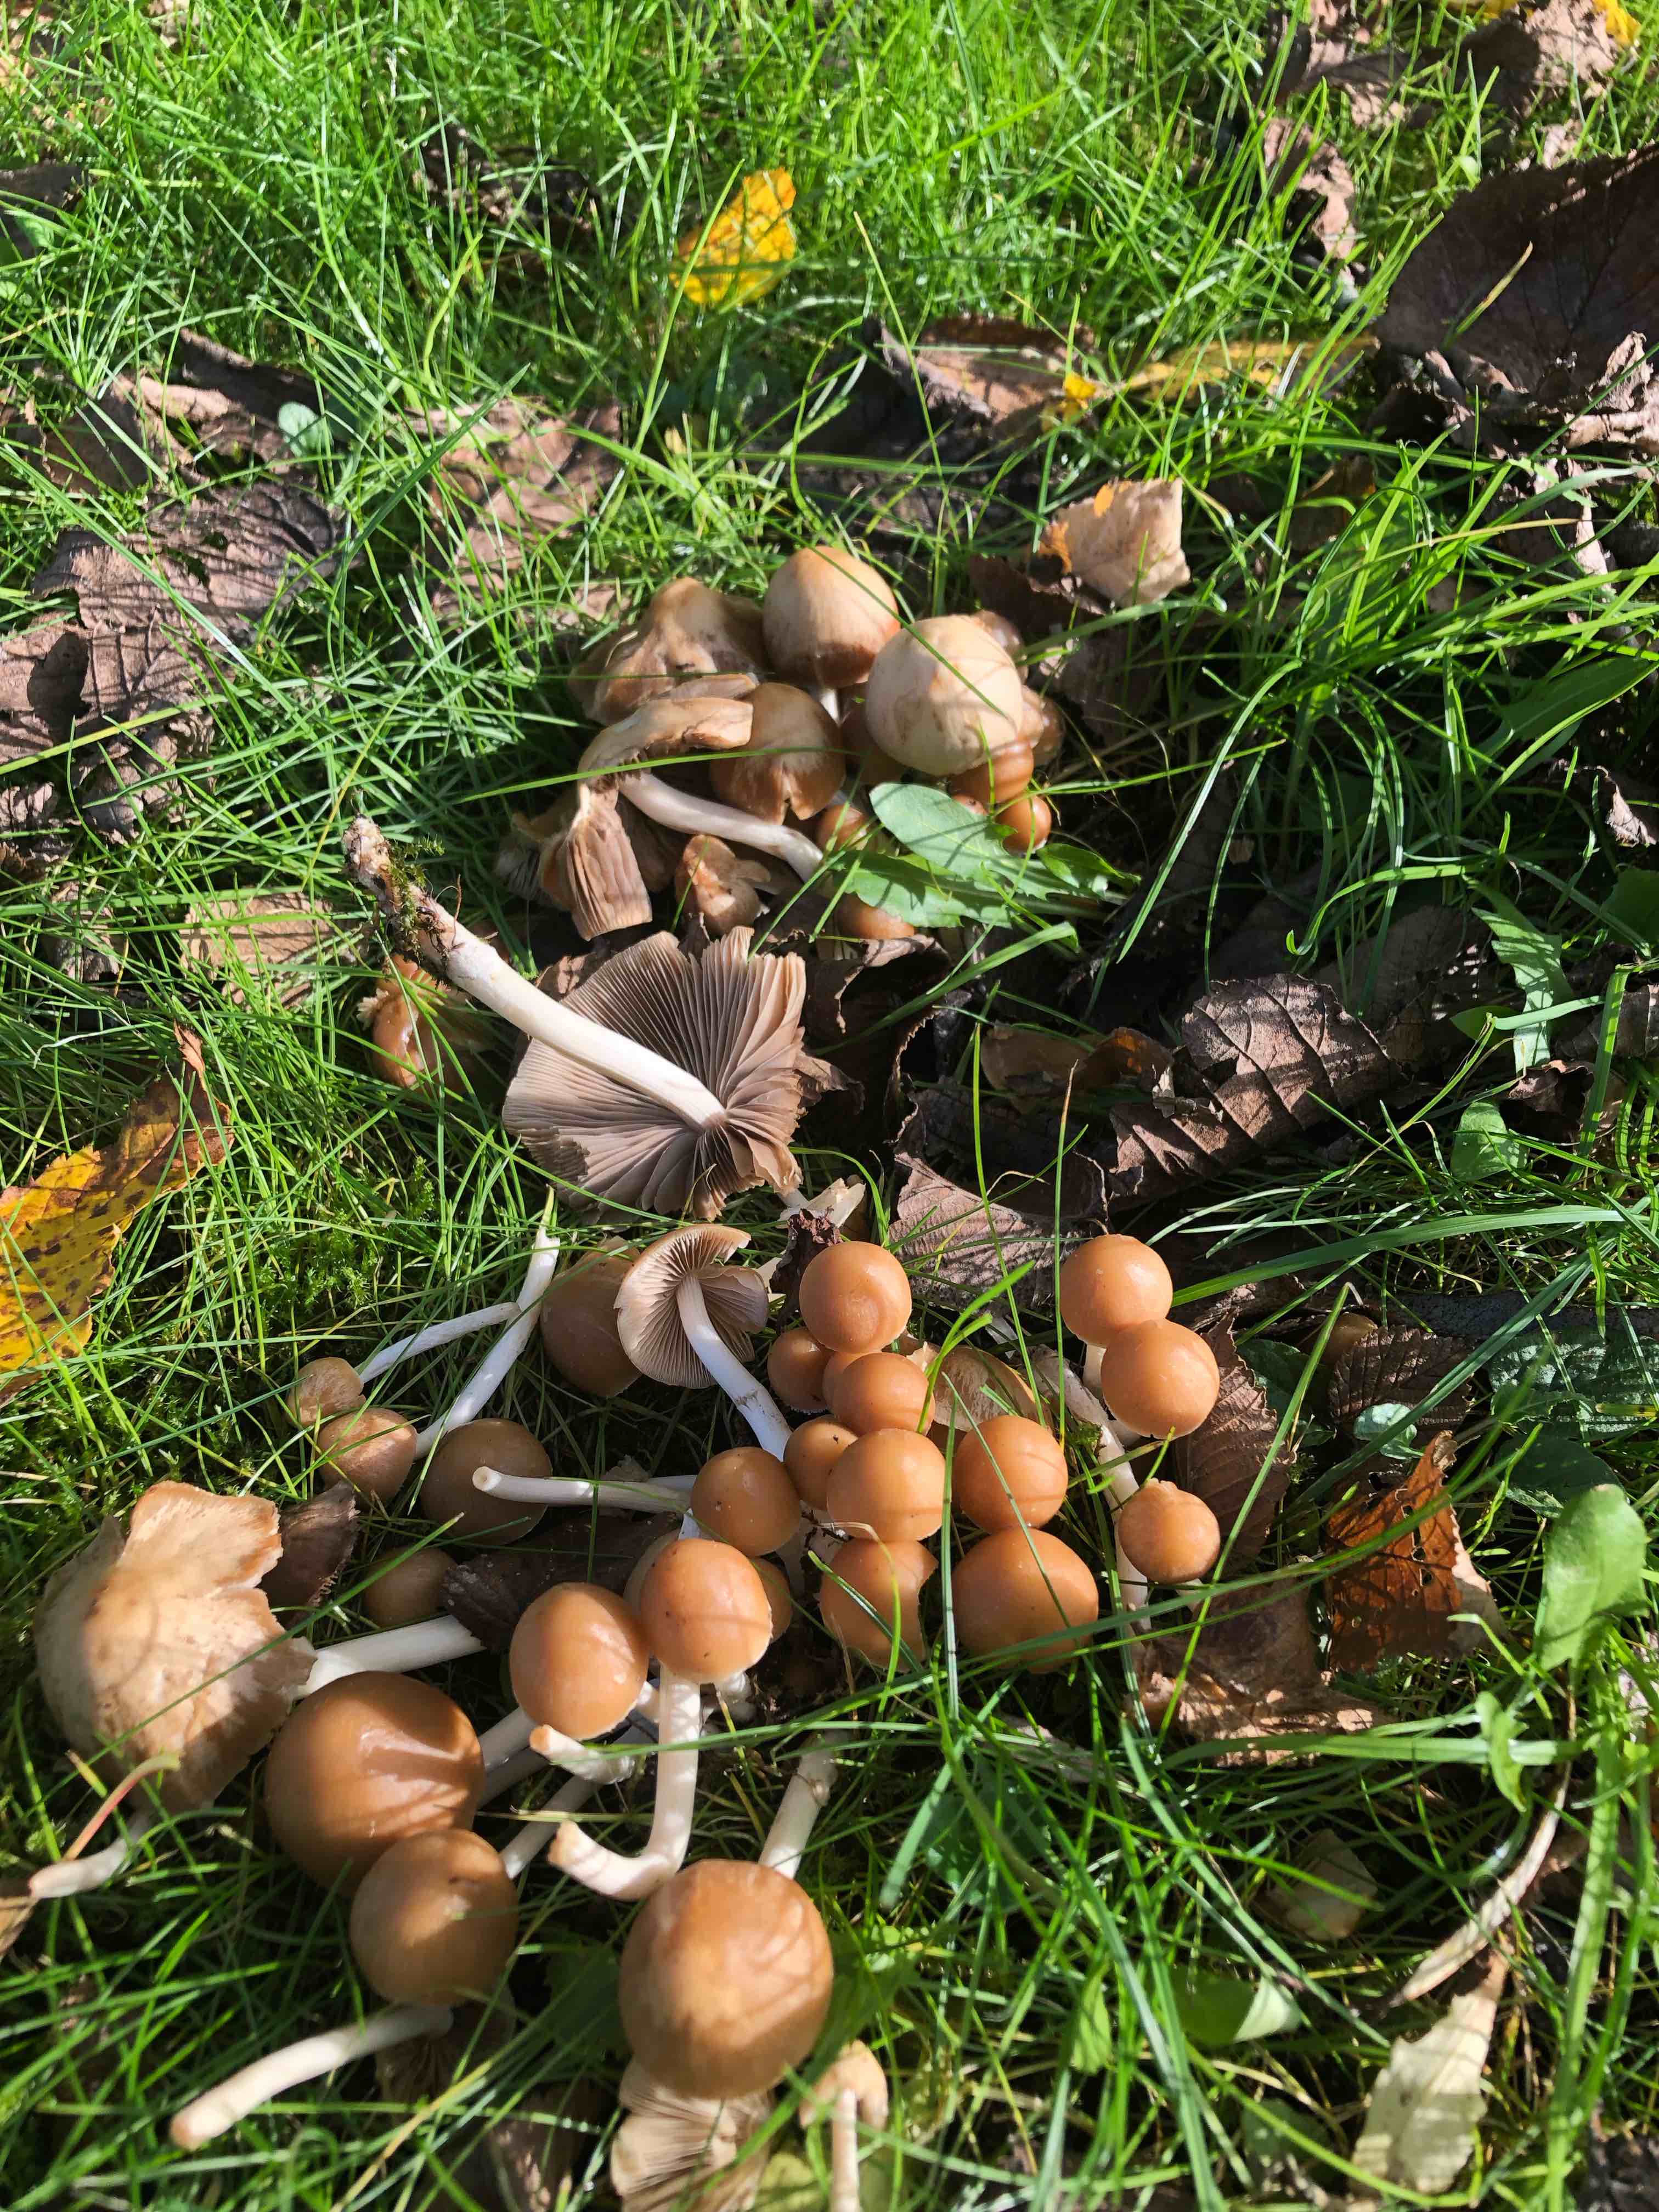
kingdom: Fungi
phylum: Basidiomycota
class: Agaricomycetes
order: Agaricales
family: Psathyrellaceae
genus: Britzelmayria
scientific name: Britzelmayria multipedata
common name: knippe-mørkhat
